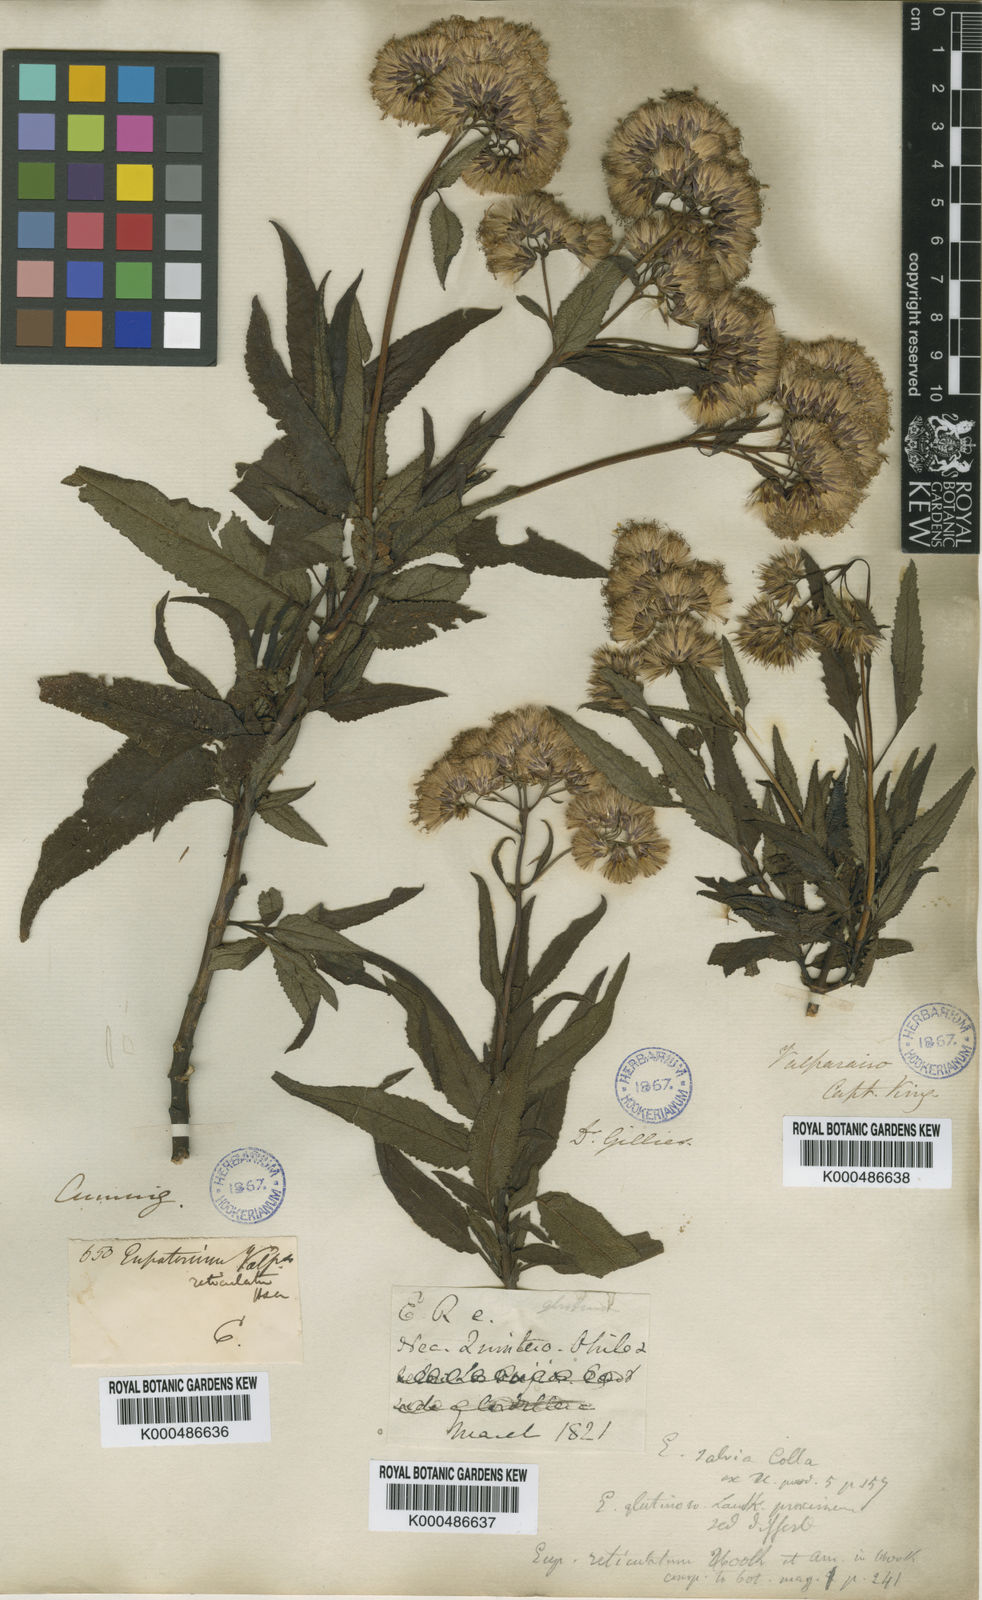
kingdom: Plantae
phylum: Tracheophyta
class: Magnoliopsida
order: Asterales
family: Asteraceae
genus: Aristeguietia
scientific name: Aristeguietia salvia
